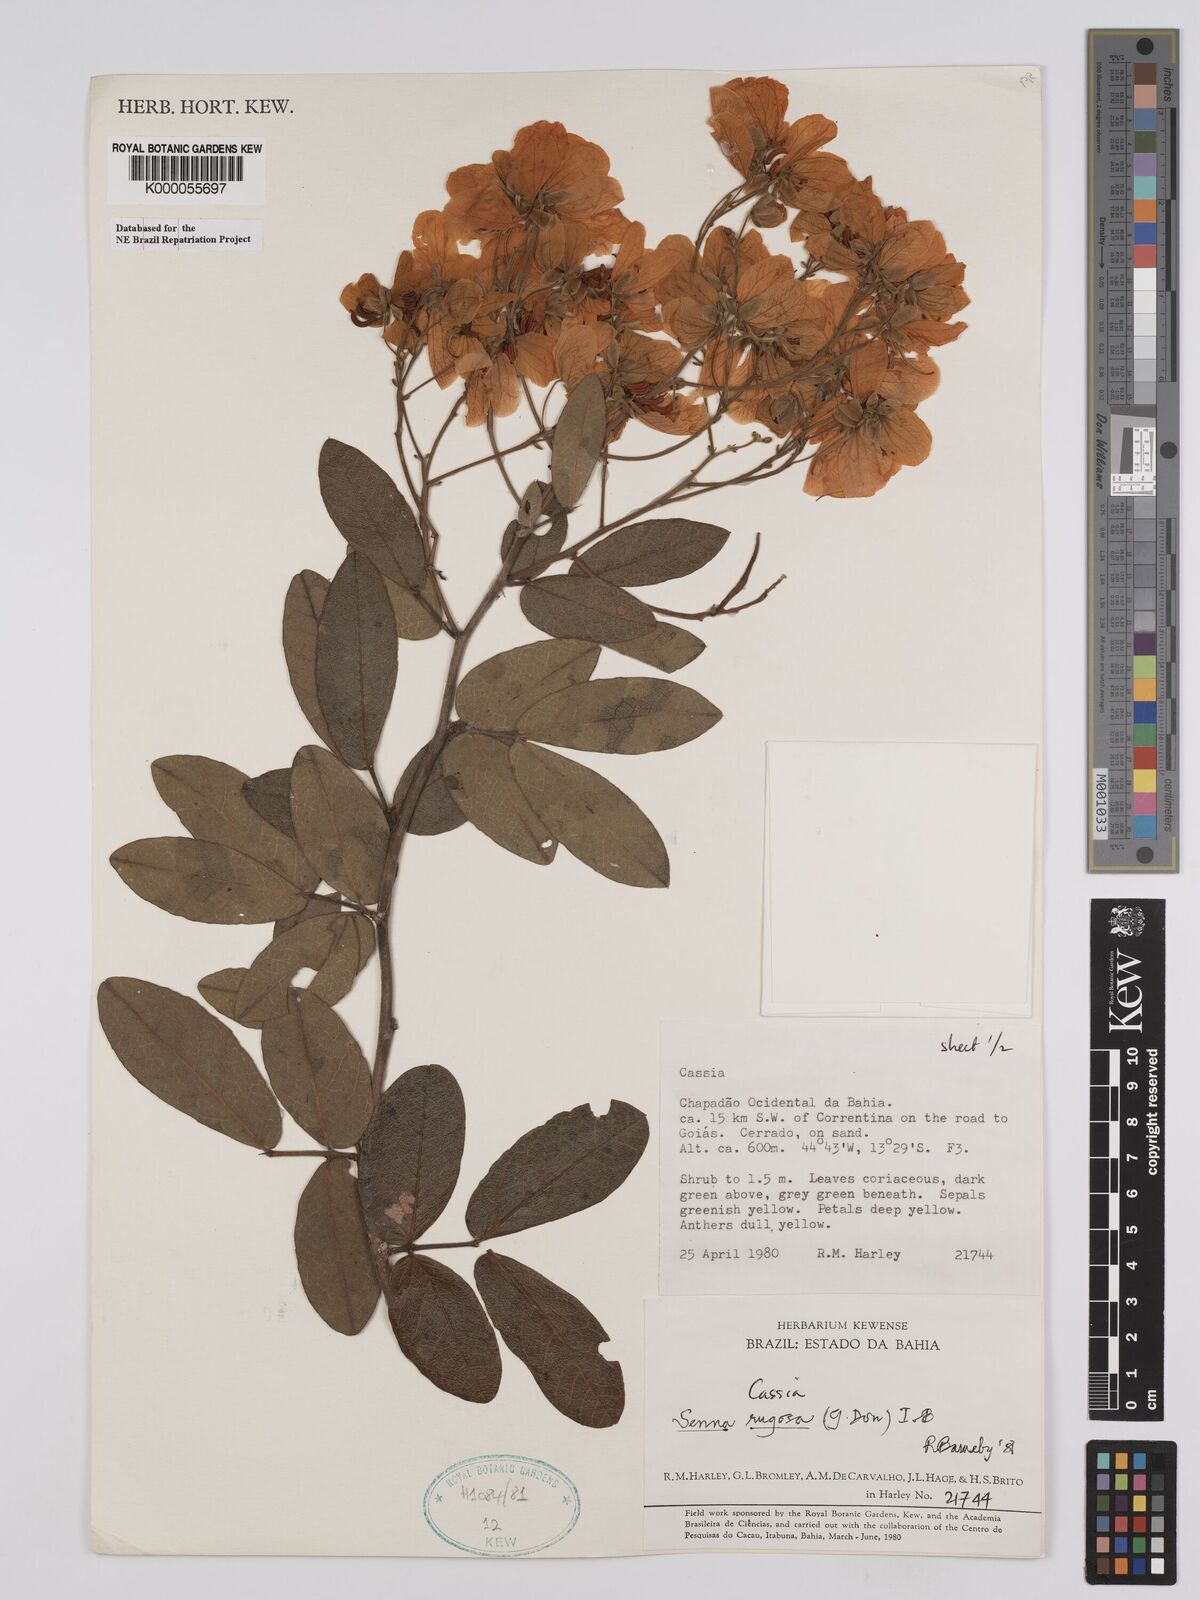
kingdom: Plantae
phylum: Tracheophyta
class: Magnoliopsida
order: Fabales
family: Fabaceae
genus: Senna
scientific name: Senna rugosa
